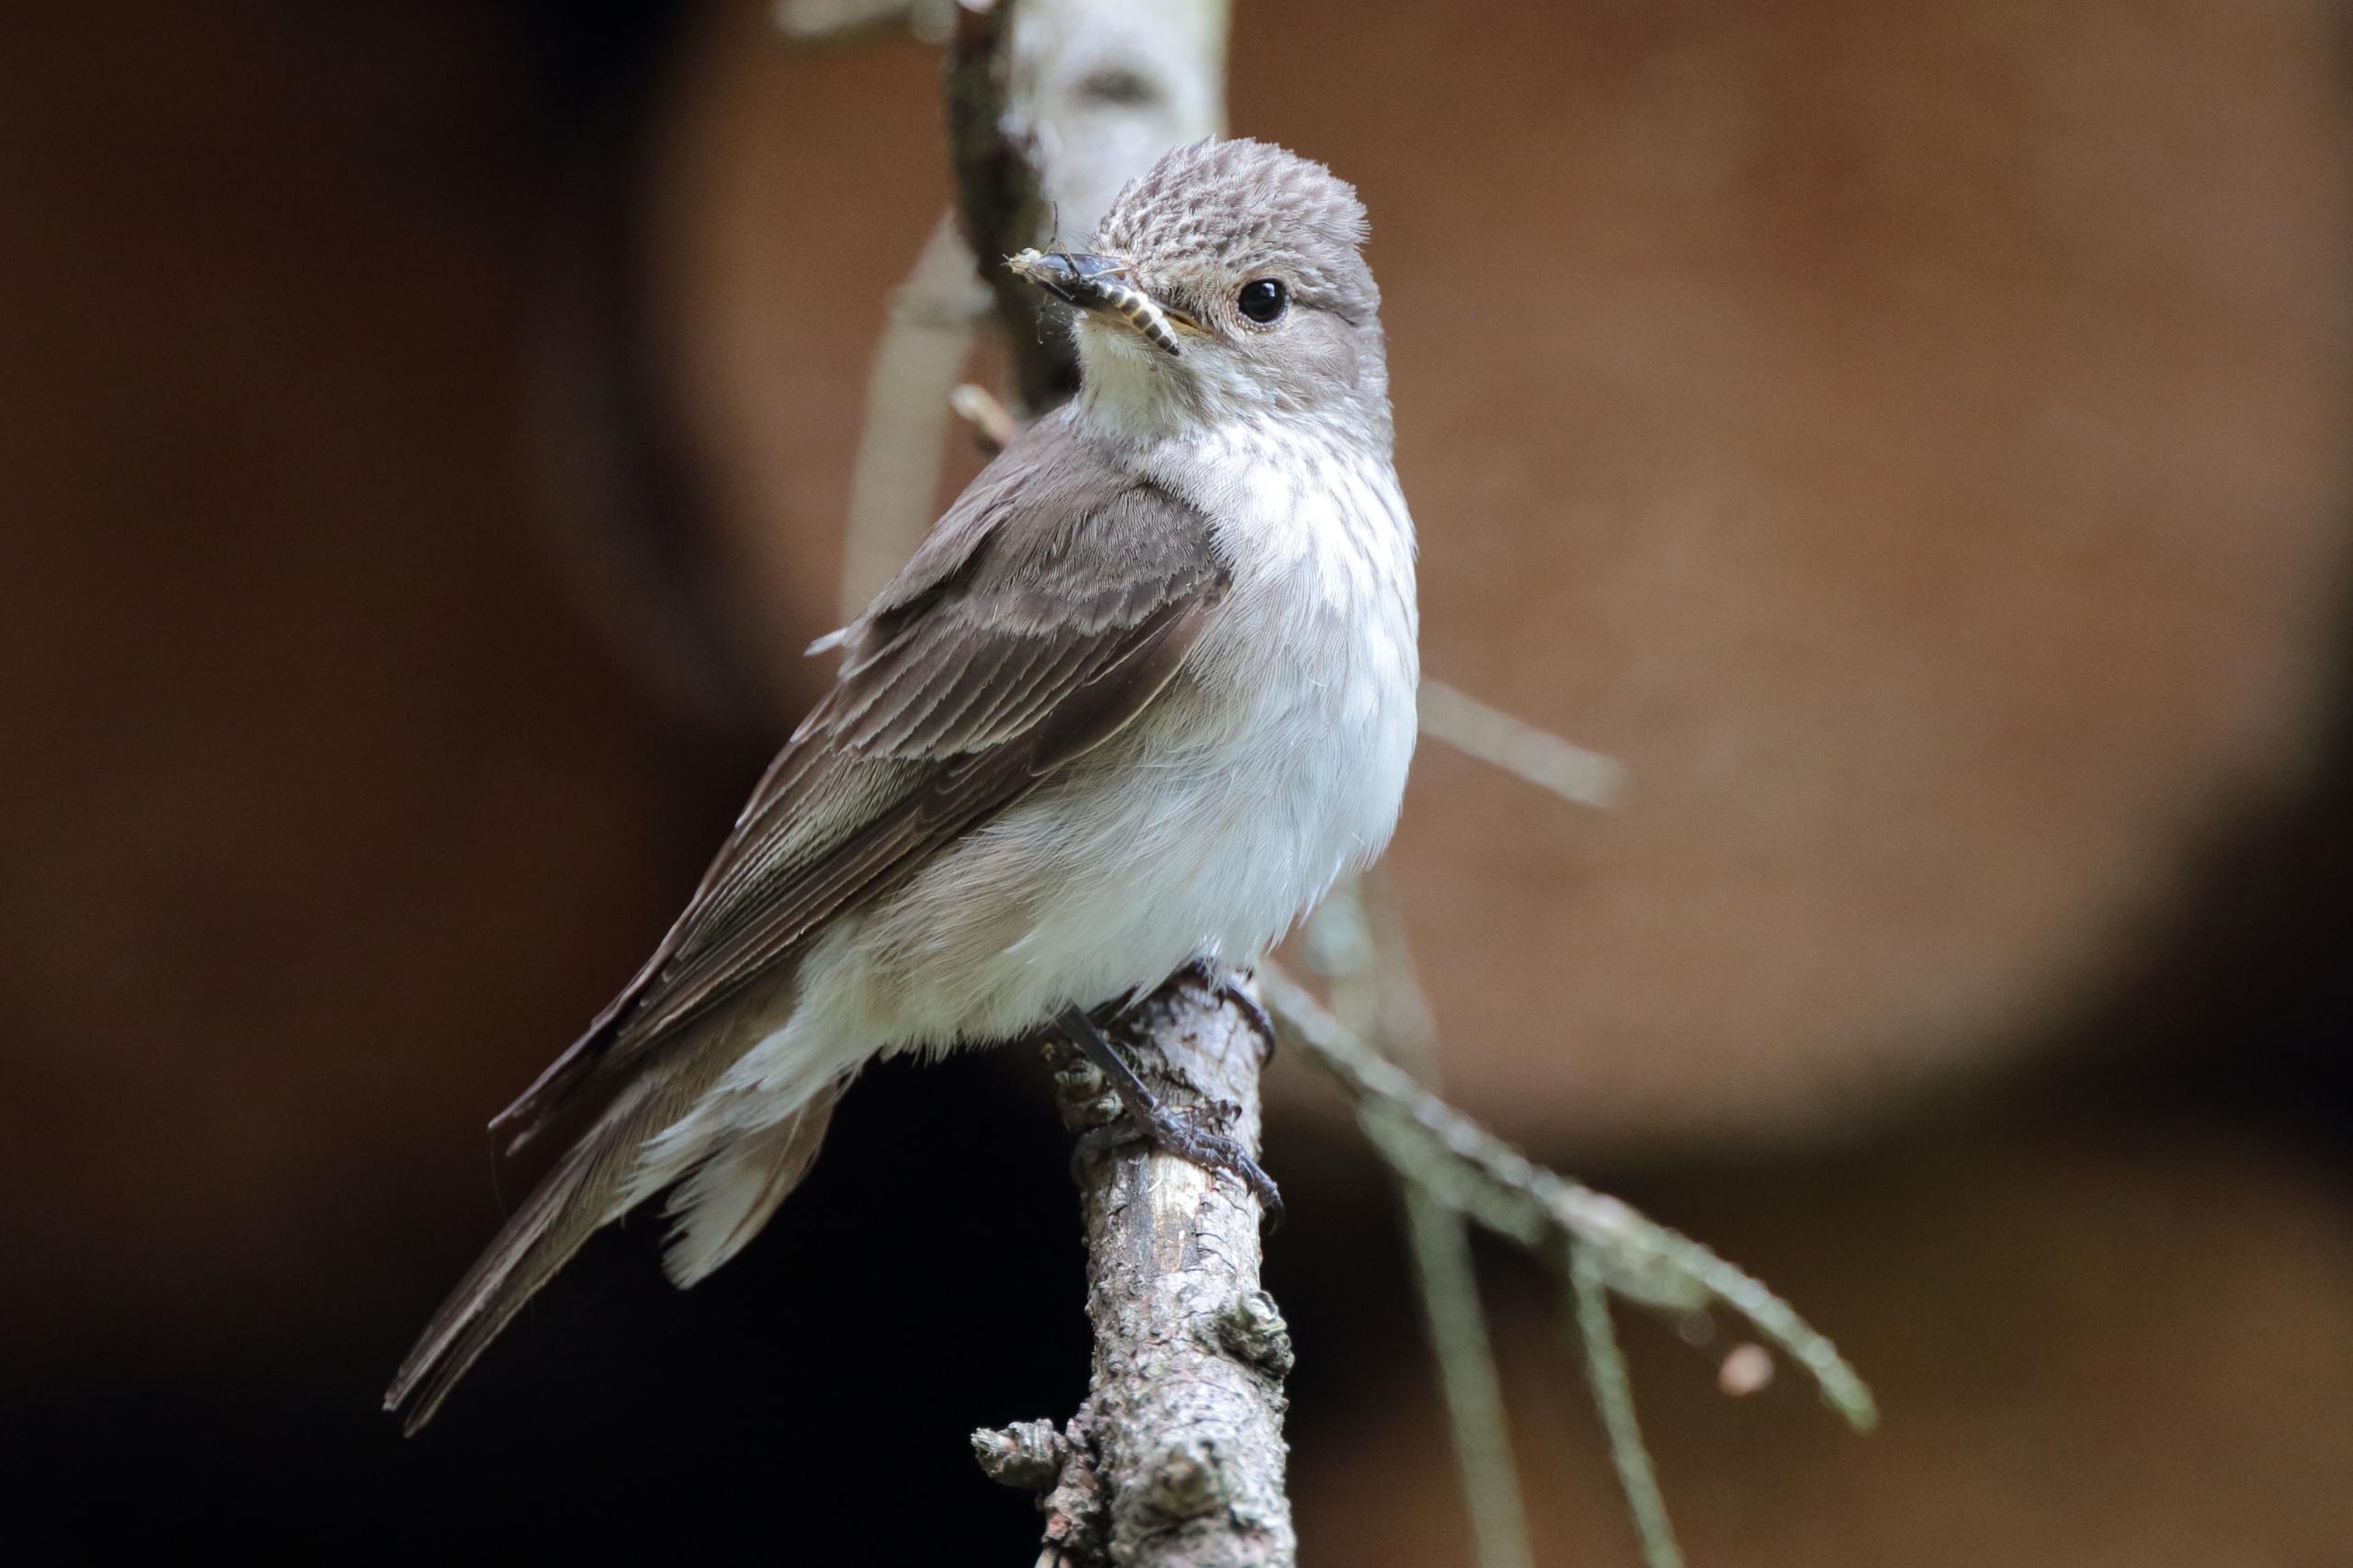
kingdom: Animalia
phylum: Chordata
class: Aves
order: Passeriformes
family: Muscicapidae
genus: Muscicapa
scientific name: Muscicapa striata
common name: Grå fluesnapper
